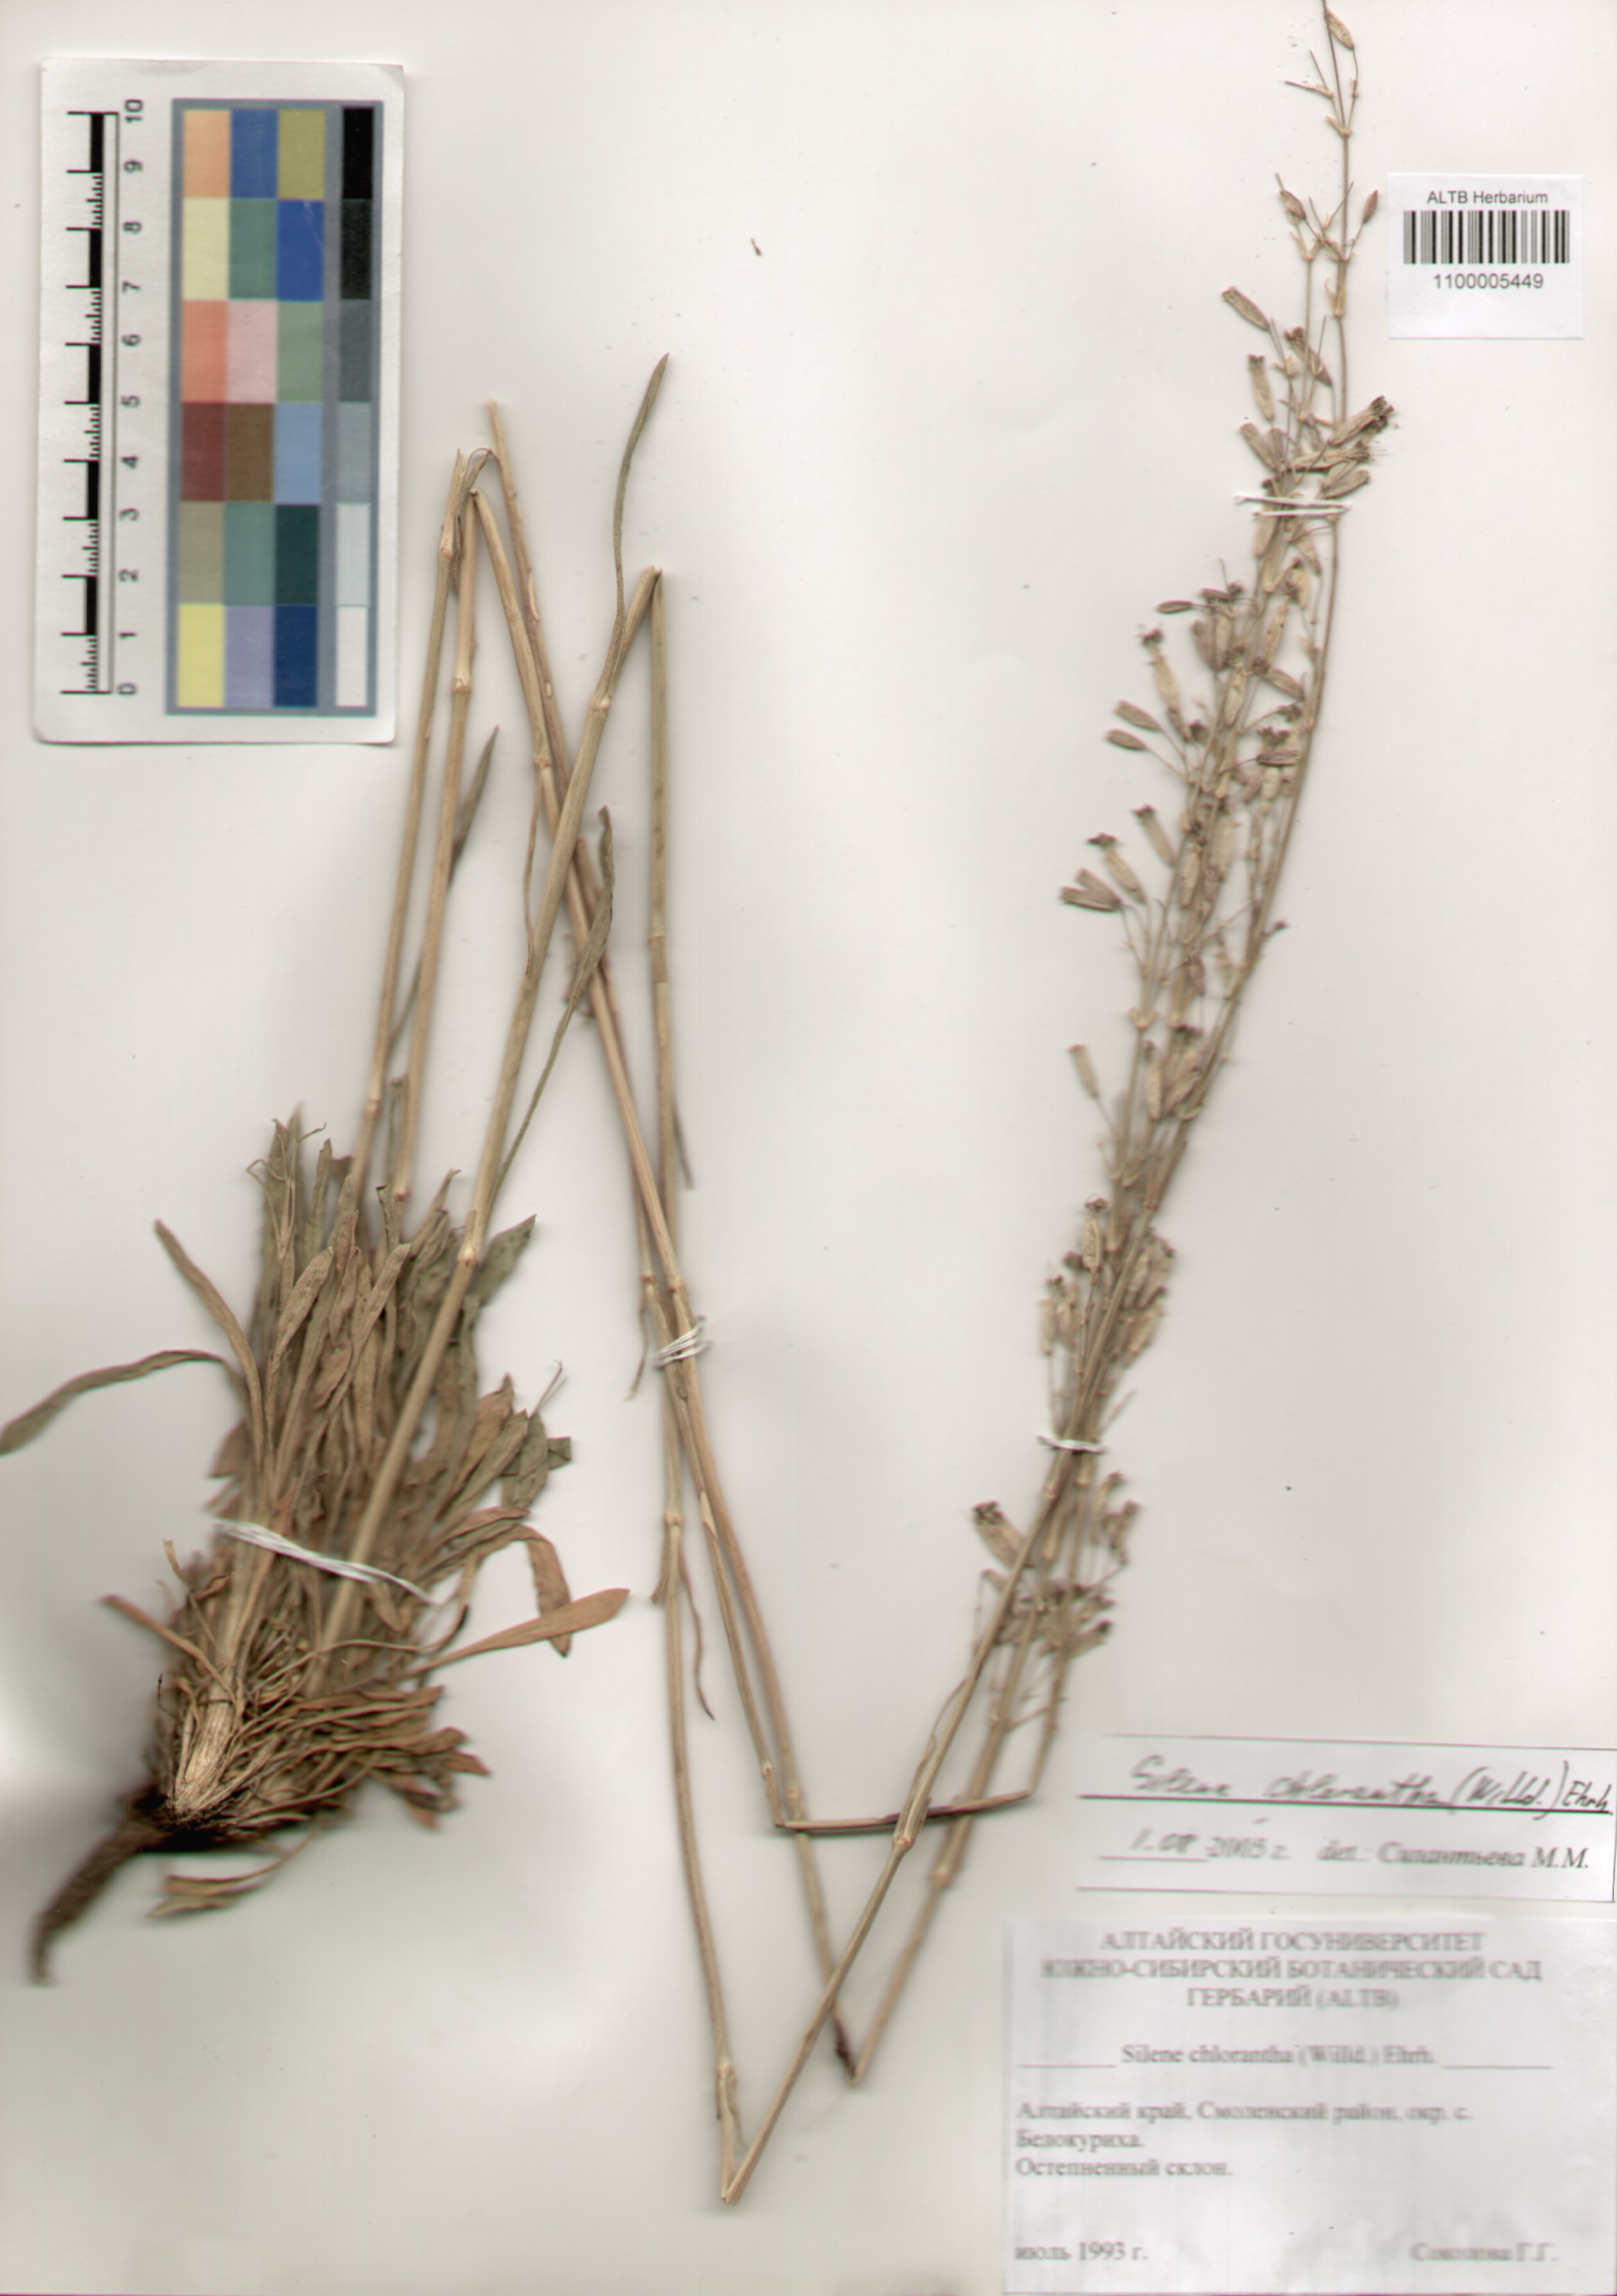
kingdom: Plantae
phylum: Tracheophyta
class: Magnoliopsida
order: Caryophyllales
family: Caryophyllaceae
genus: Silene
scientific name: Silene chlorantha
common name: Yellowgreen catchfly
